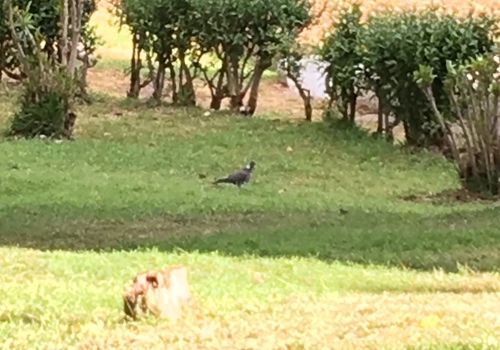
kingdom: Animalia
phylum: Chordata
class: Aves
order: Columbiformes
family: Columbidae
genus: Columba
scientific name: Columba palumbus
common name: Common wood pigeon
